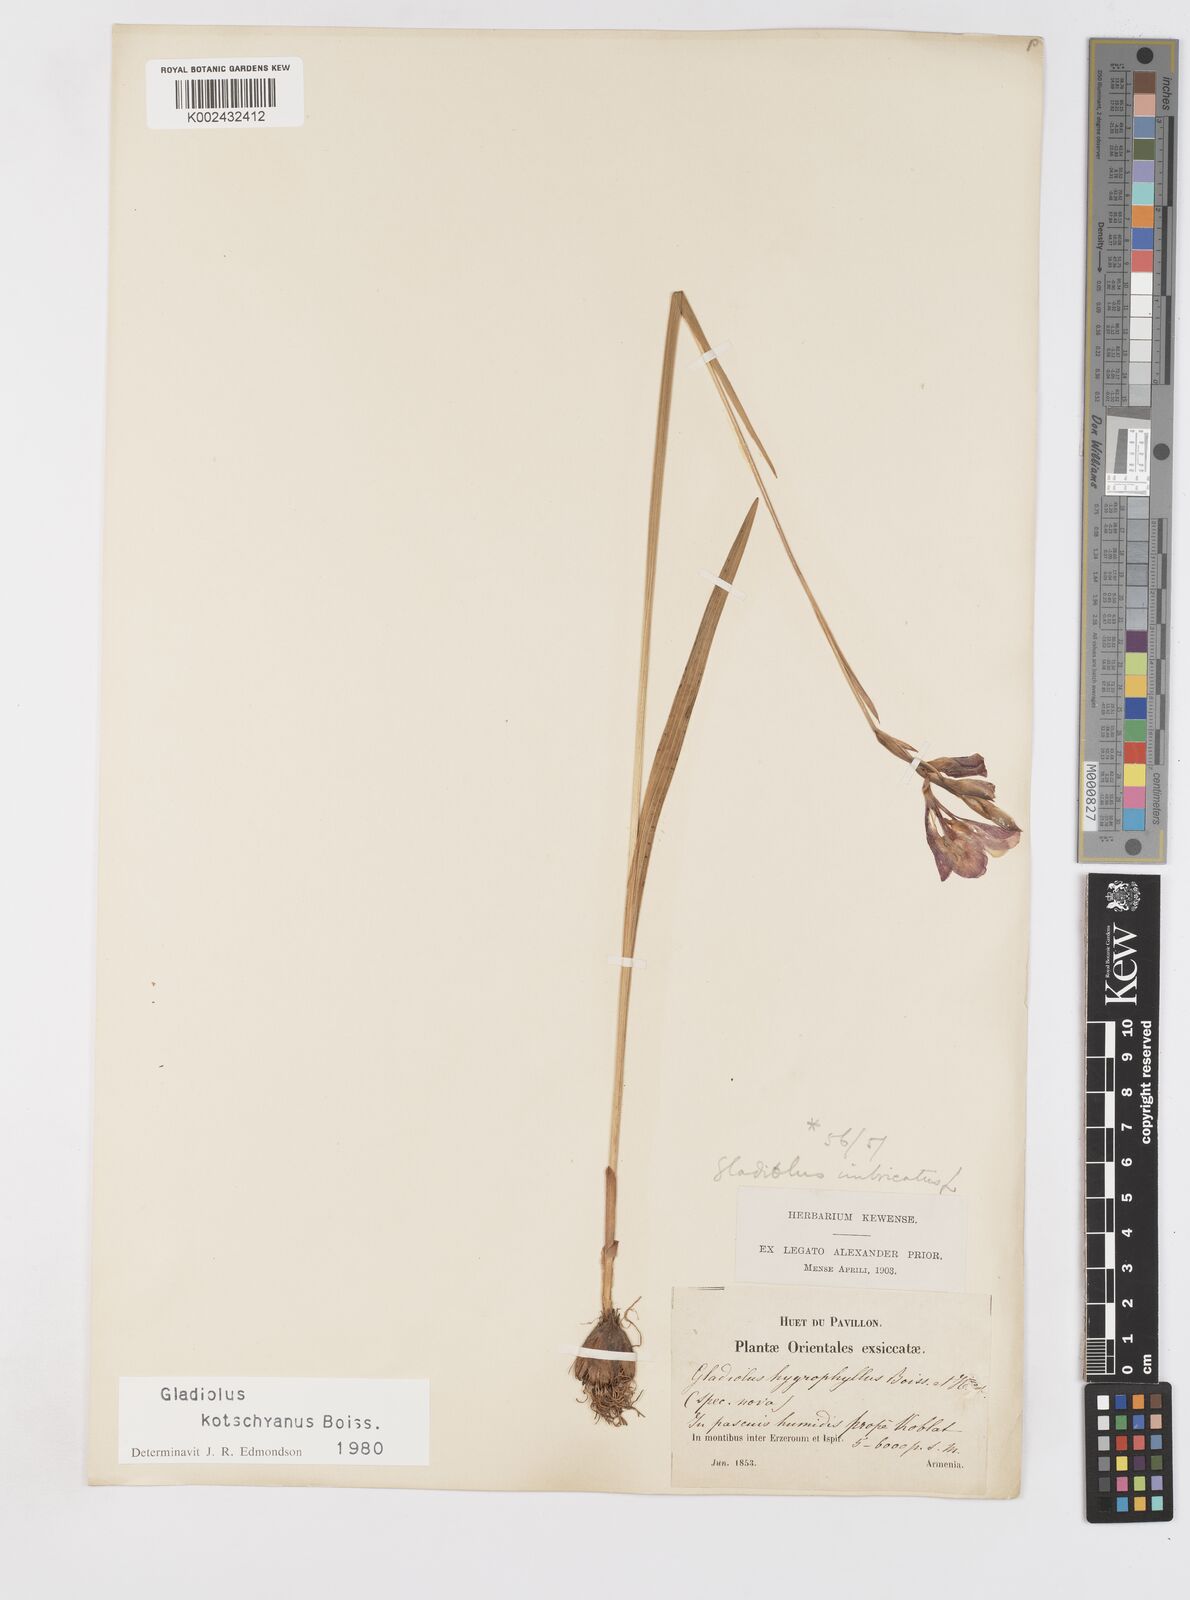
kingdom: Plantae
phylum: Tracheophyta
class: Liliopsida
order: Asparagales
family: Iridaceae
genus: Gladiolus
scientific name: Gladiolus kotschyanus
